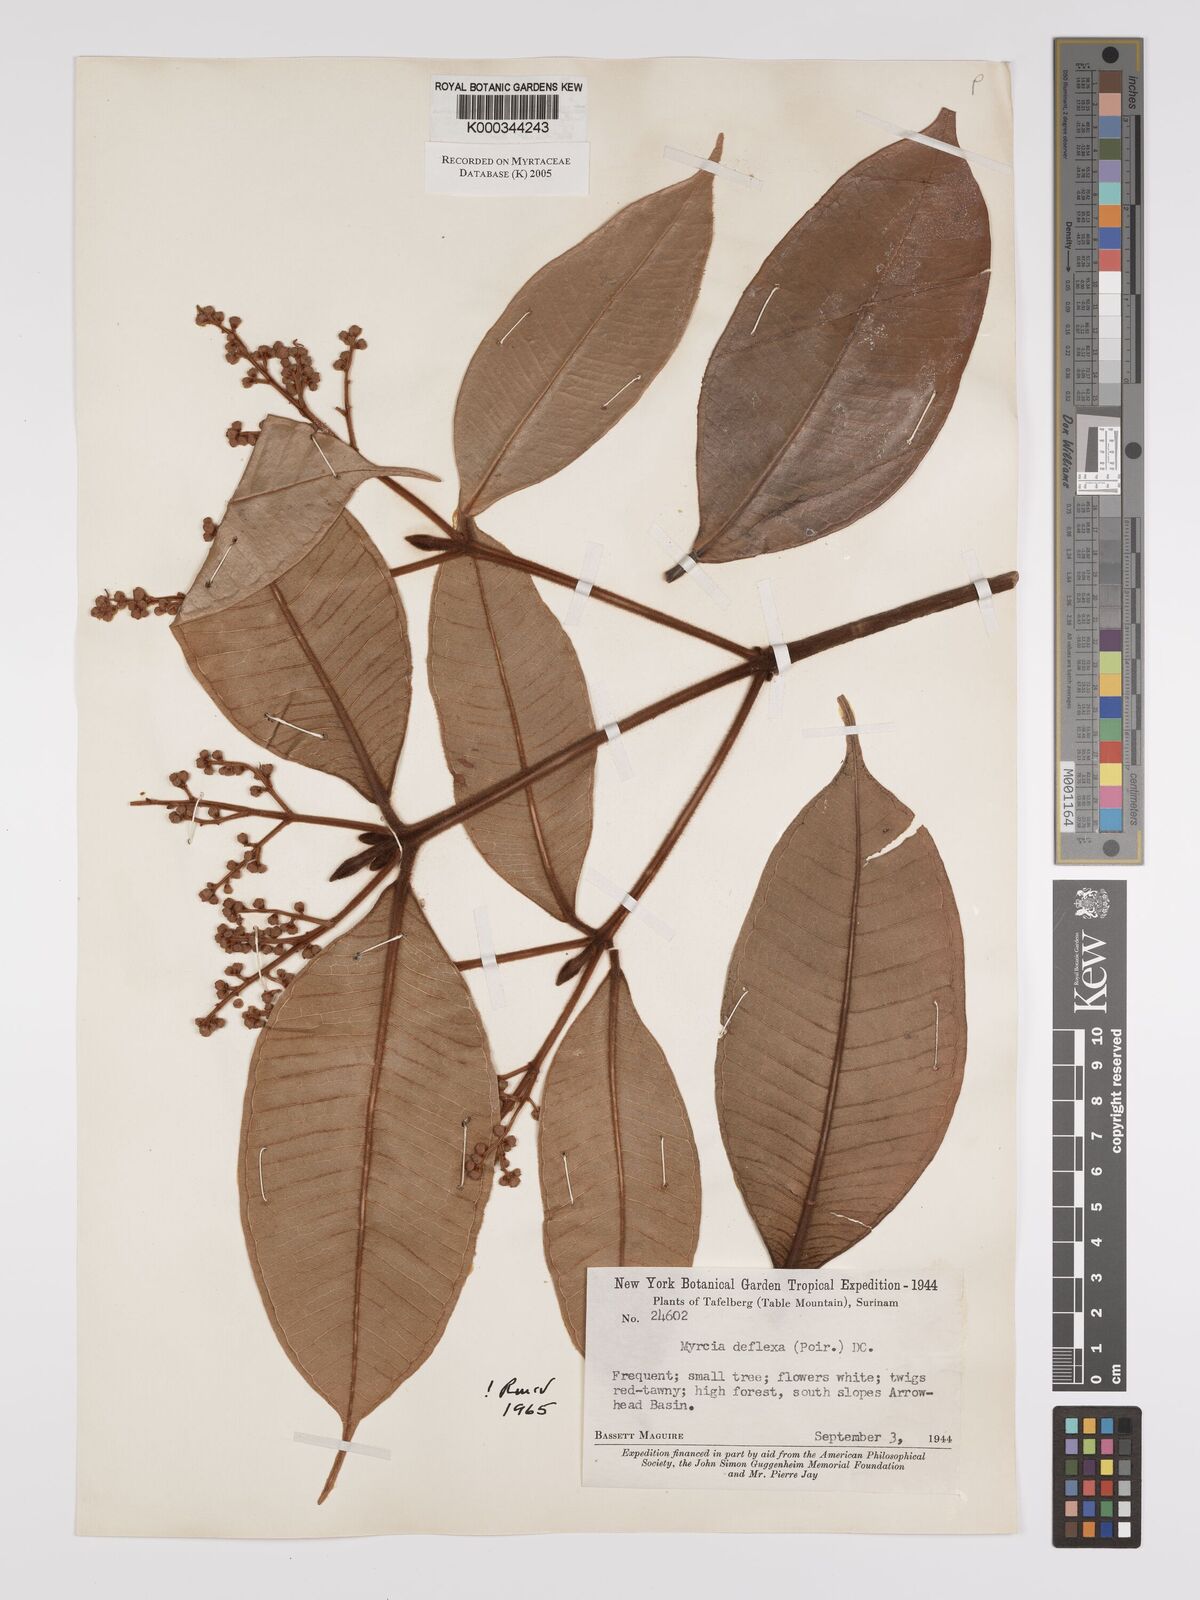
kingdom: Plantae
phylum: Tracheophyta
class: Magnoliopsida
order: Myrtales
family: Myrtaceae
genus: Myrcia
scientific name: Myrcia deflexa
